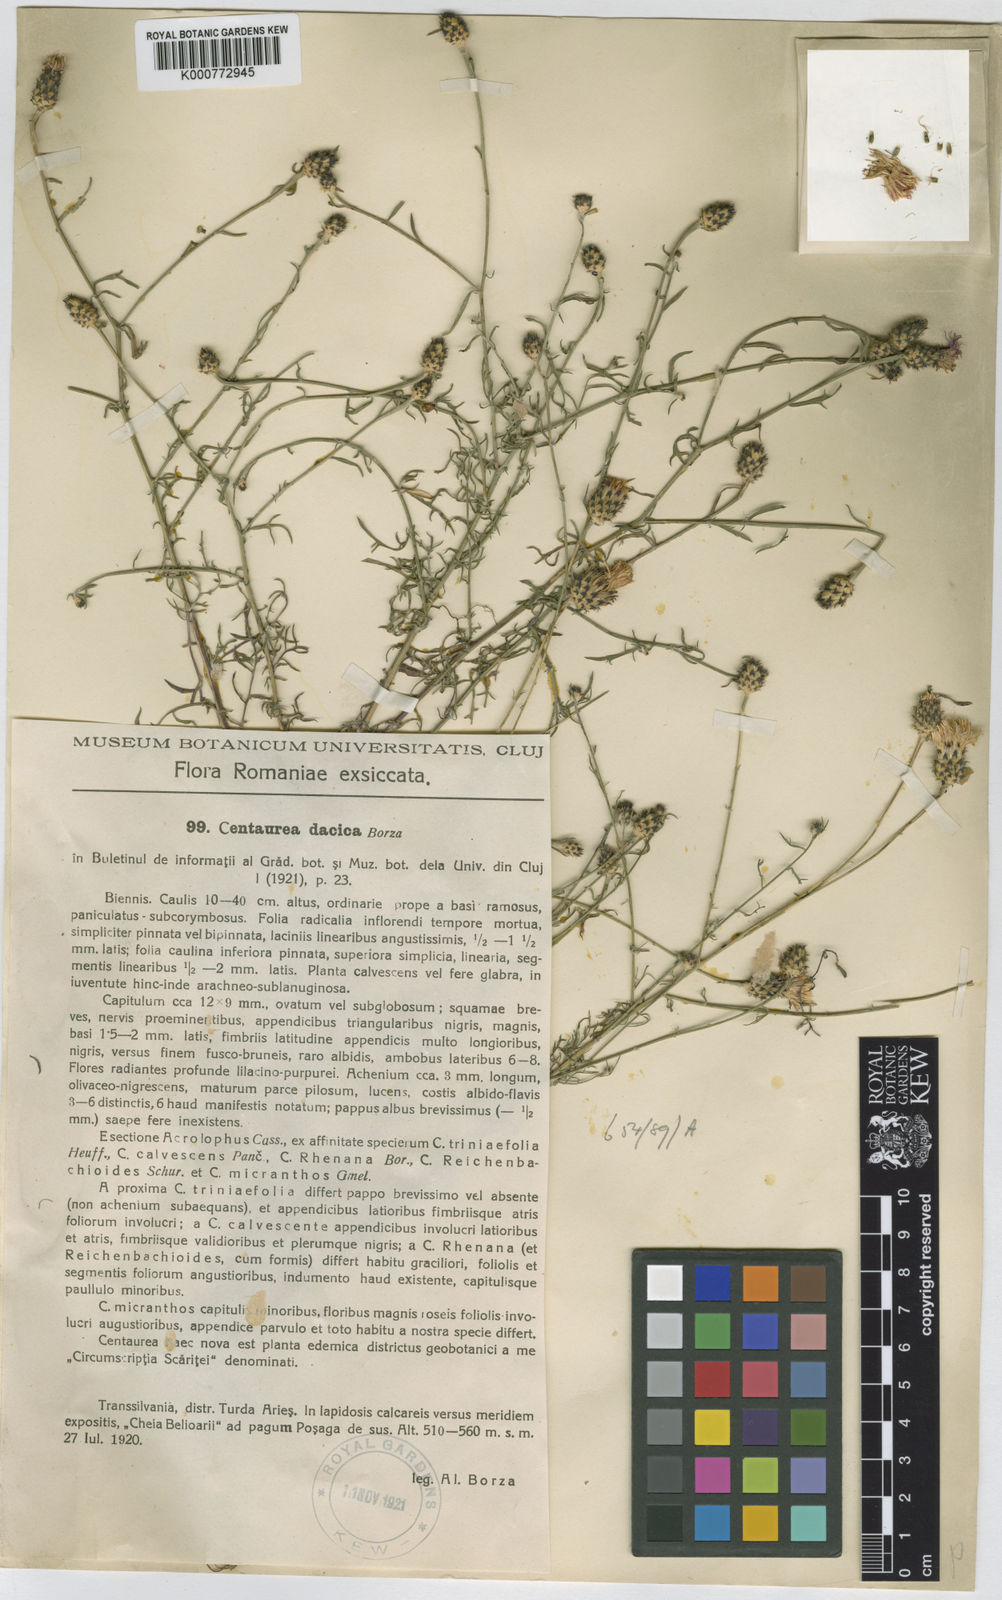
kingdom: Plantae
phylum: Tracheophyta
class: Magnoliopsida
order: Asterales
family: Asteraceae
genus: Centaurea
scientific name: Centaurea reichenbachii
